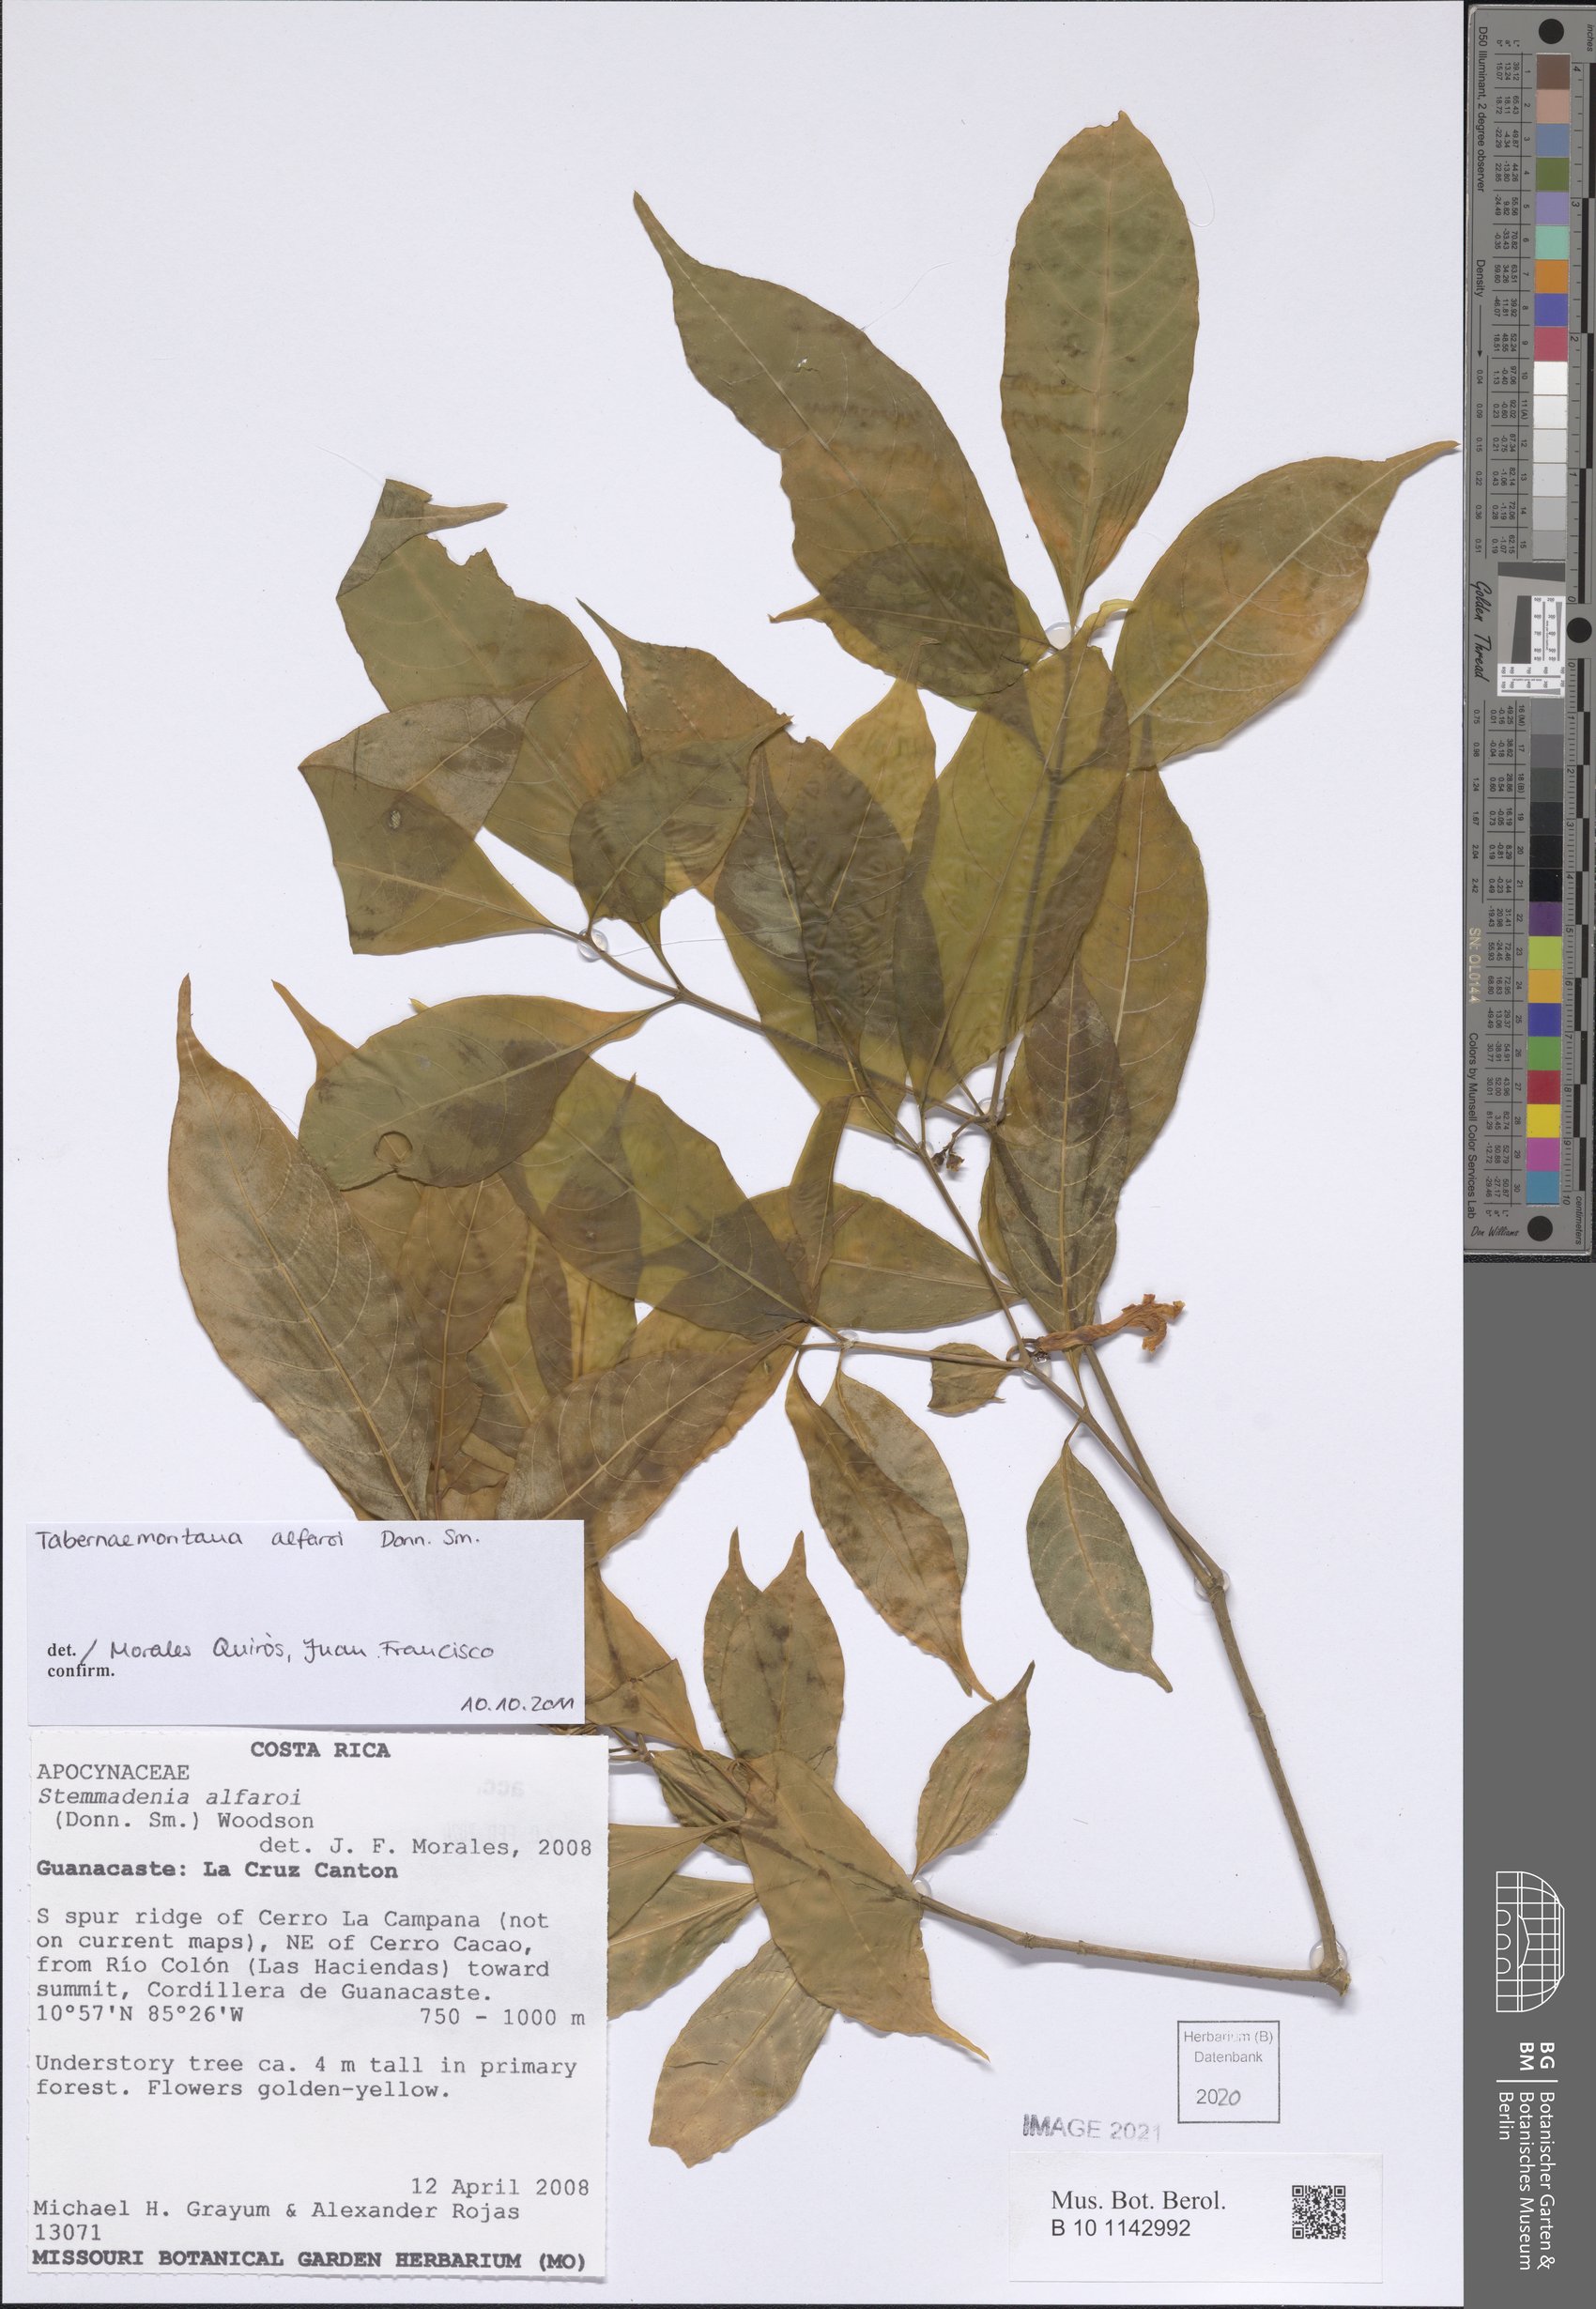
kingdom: Plantae
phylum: Tracheophyta
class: Magnoliopsida
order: Gentianales
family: Apocynaceae
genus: Tabernaemontana
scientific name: Tabernaemontana alfaroi
